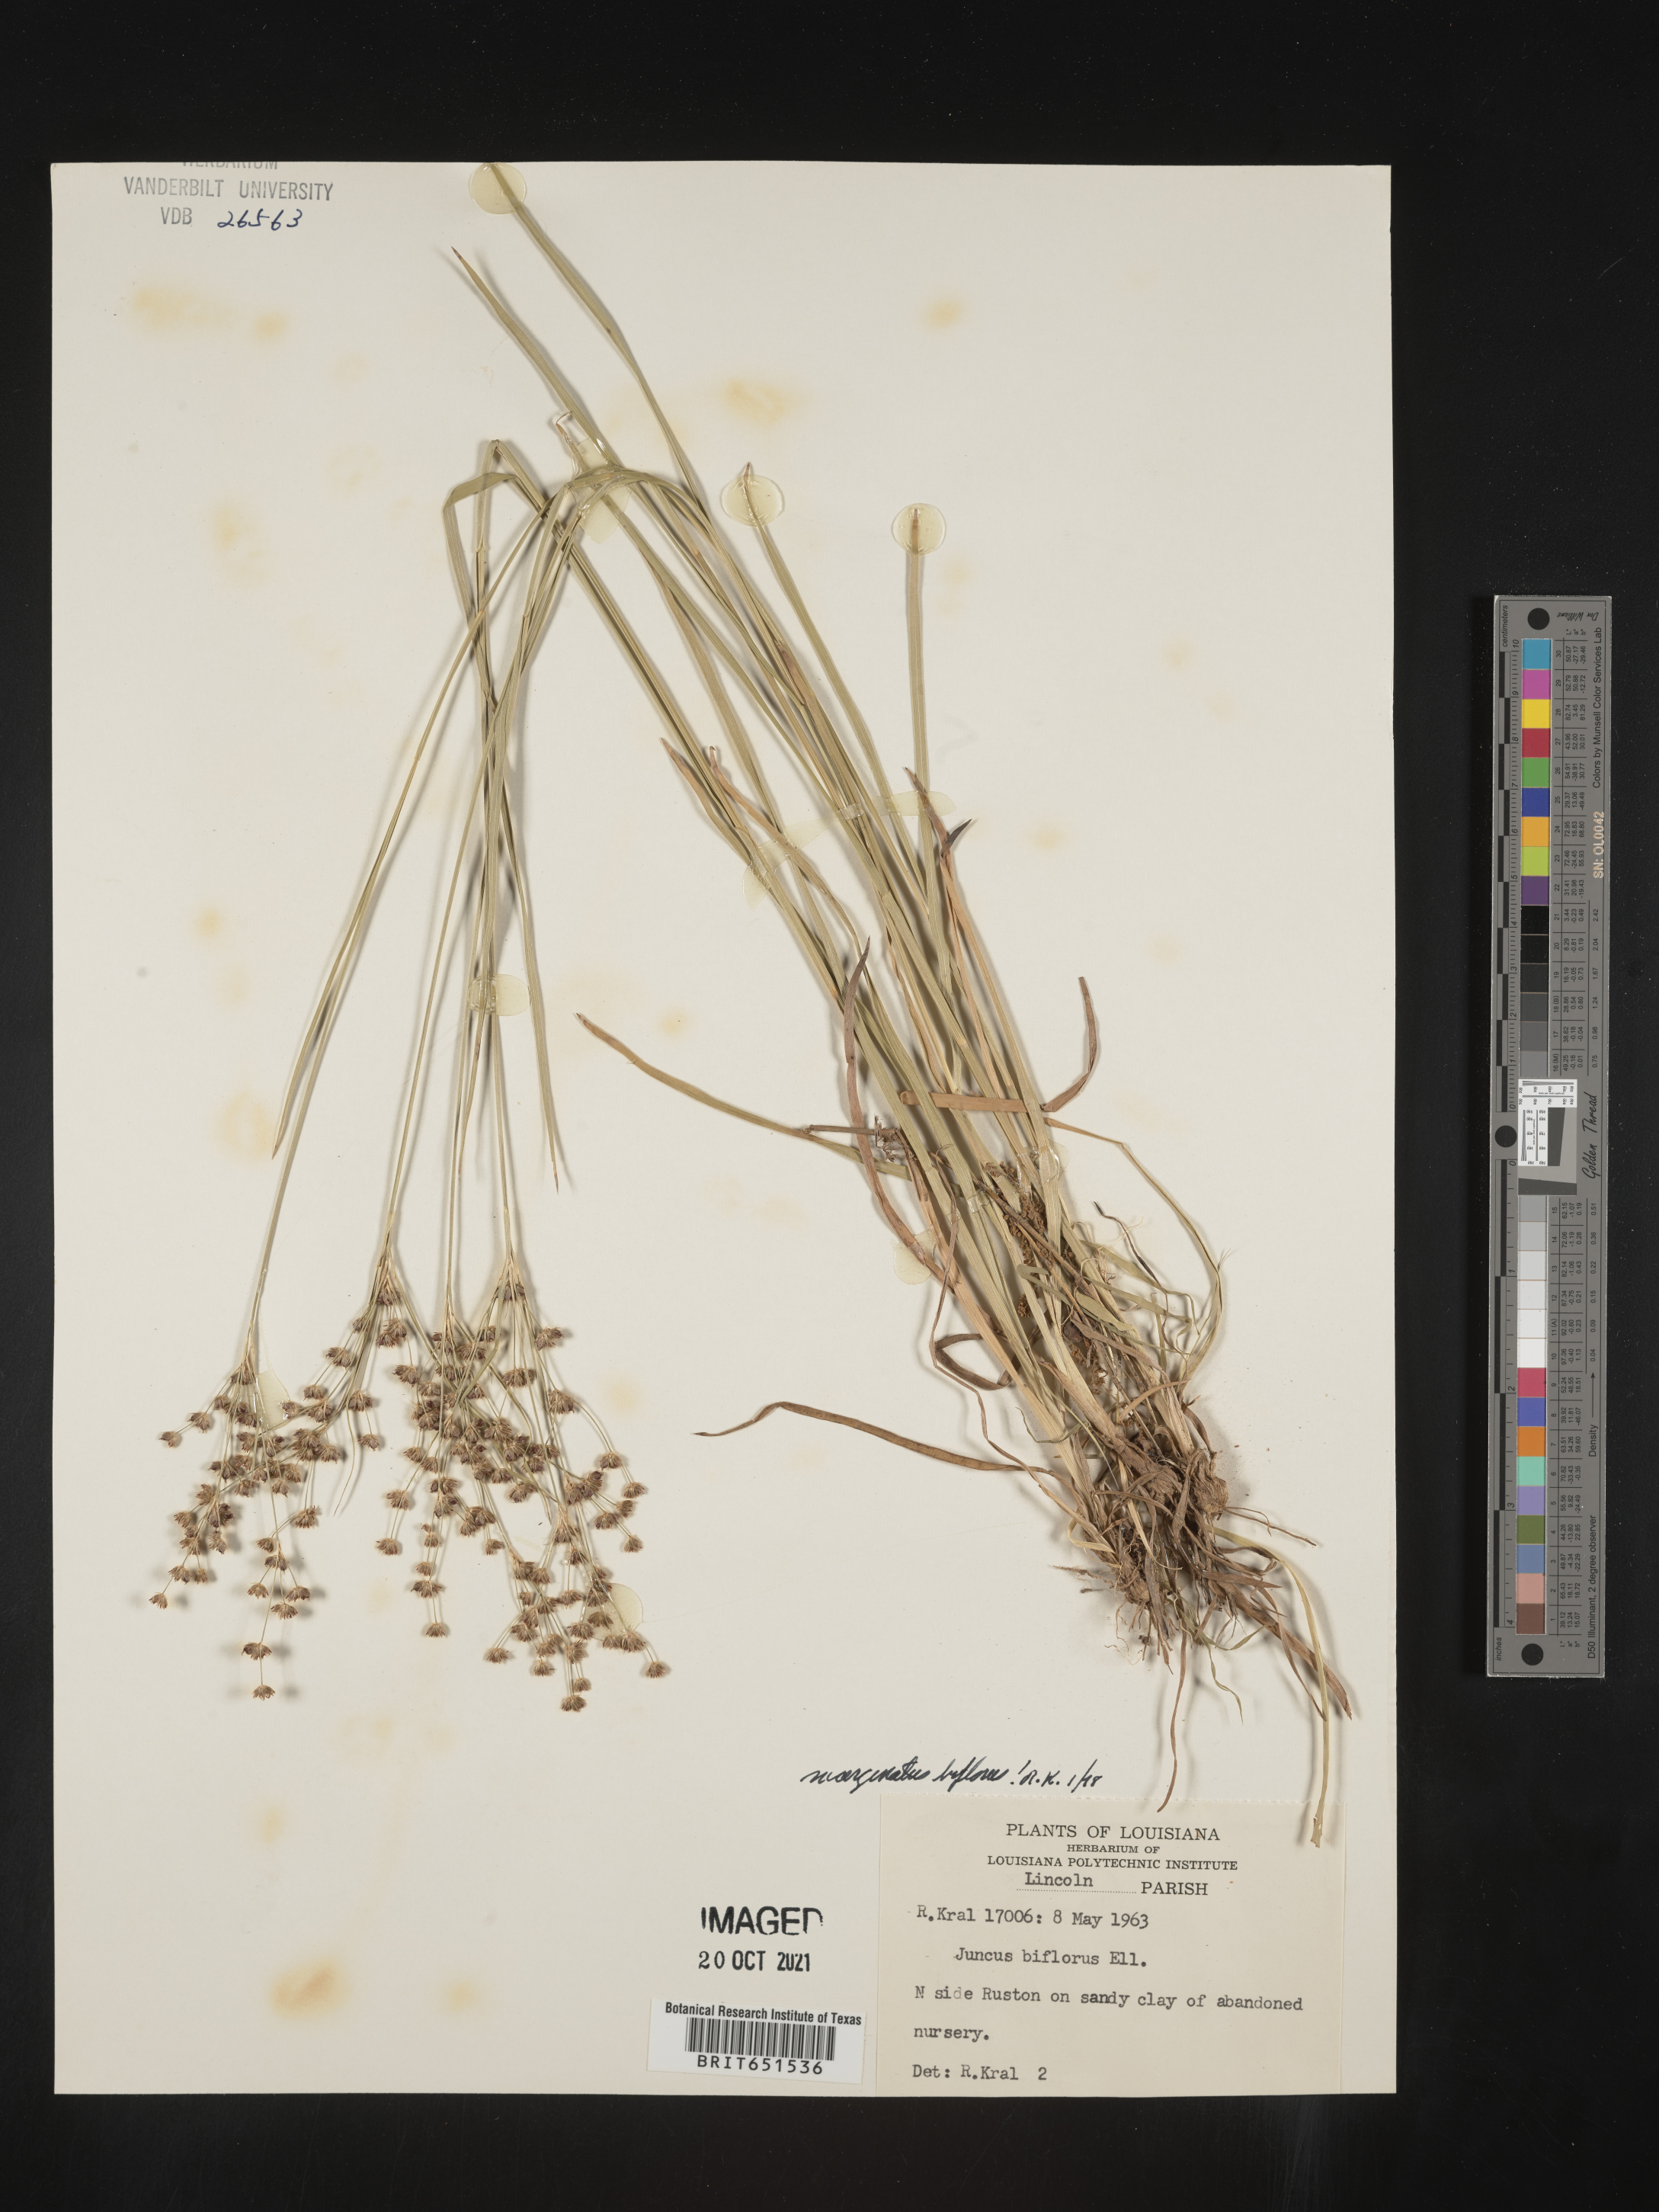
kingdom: Plantae
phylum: Tracheophyta
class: Liliopsida
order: Poales
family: Juncaceae
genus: Juncus
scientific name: Juncus biflorus
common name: Two-flowered rush
